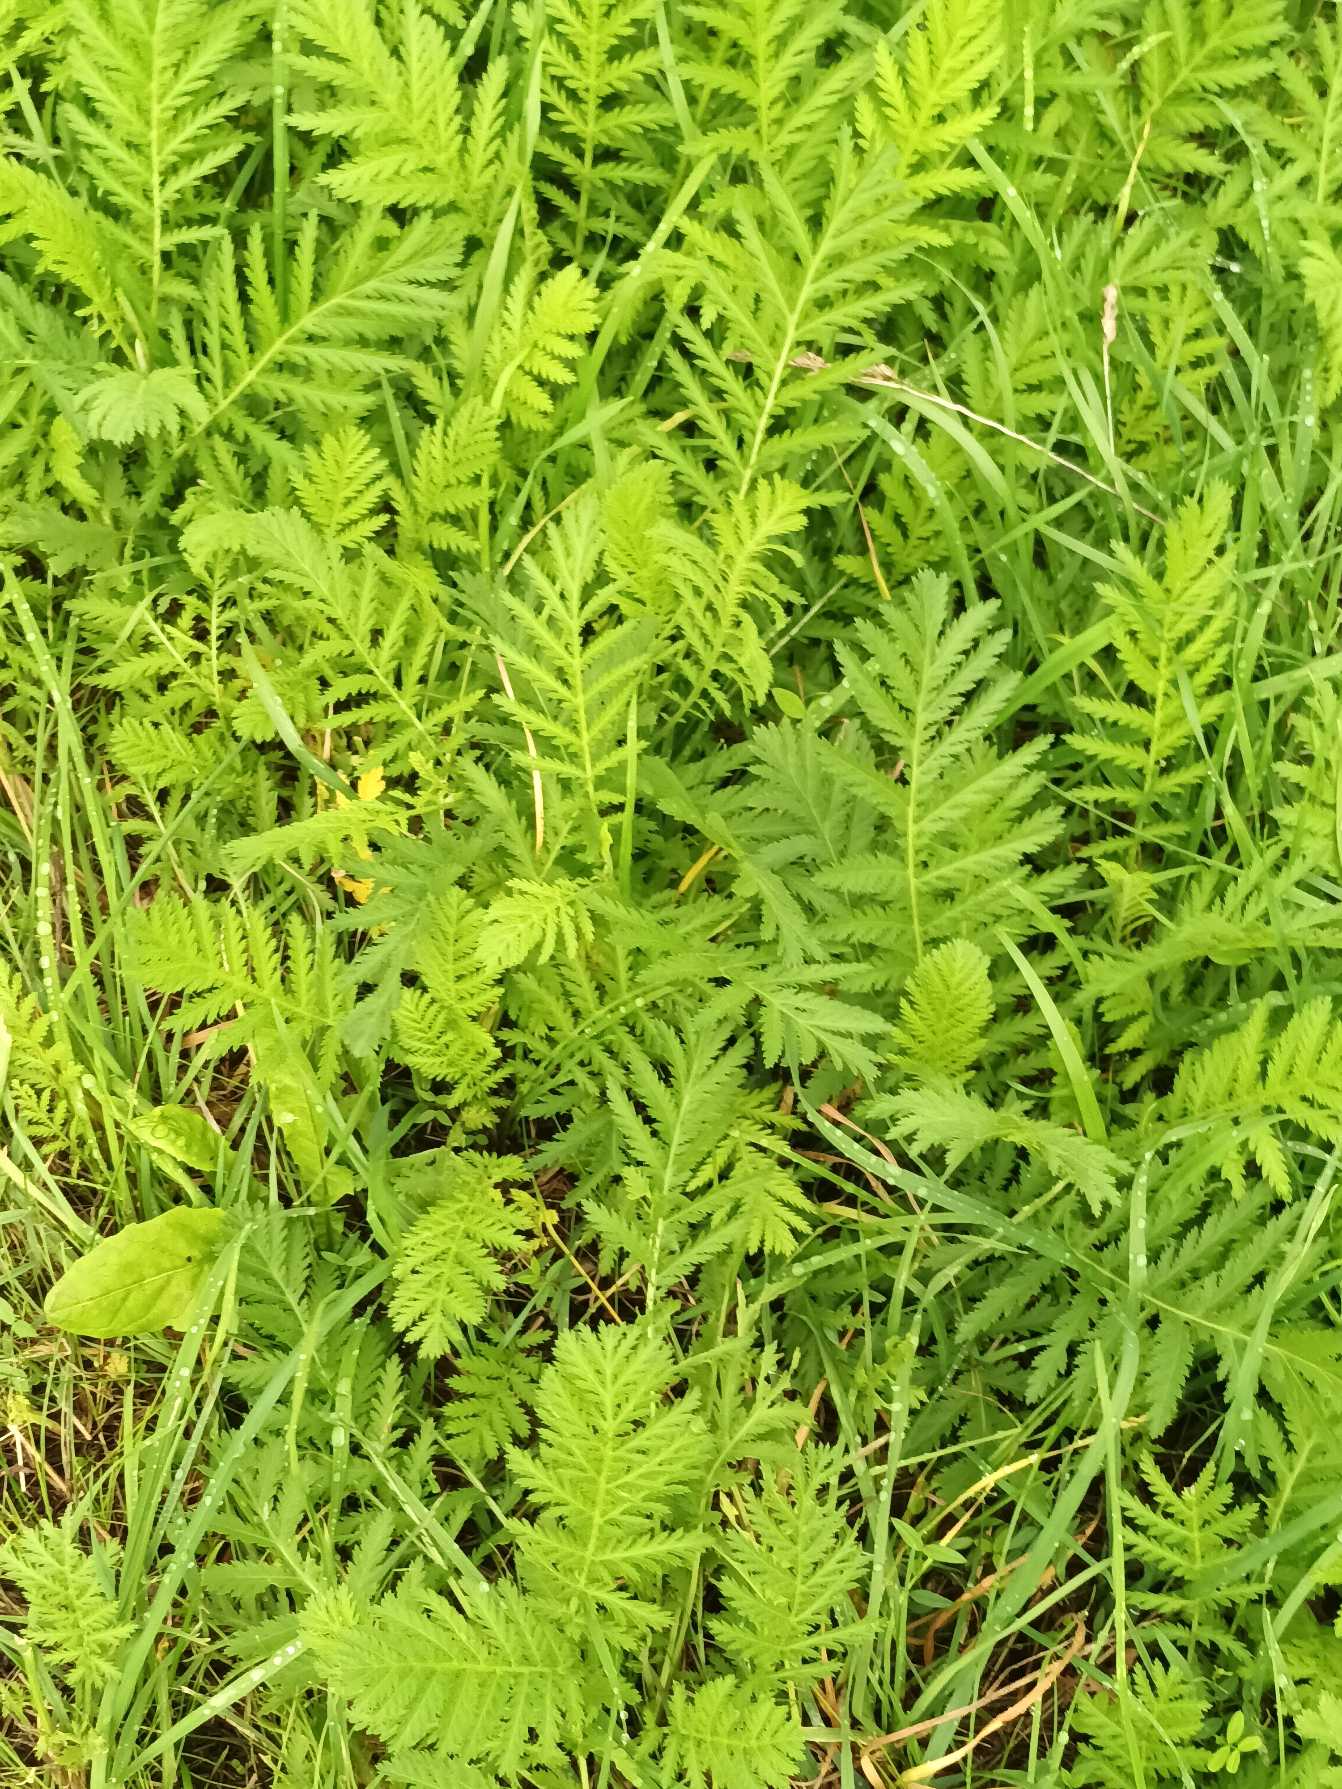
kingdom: Plantae
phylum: Tracheophyta
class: Magnoliopsida
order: Asterales
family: Asteraceae
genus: Tanacetum
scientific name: Tanacetum vulgare
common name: Rejnfan
